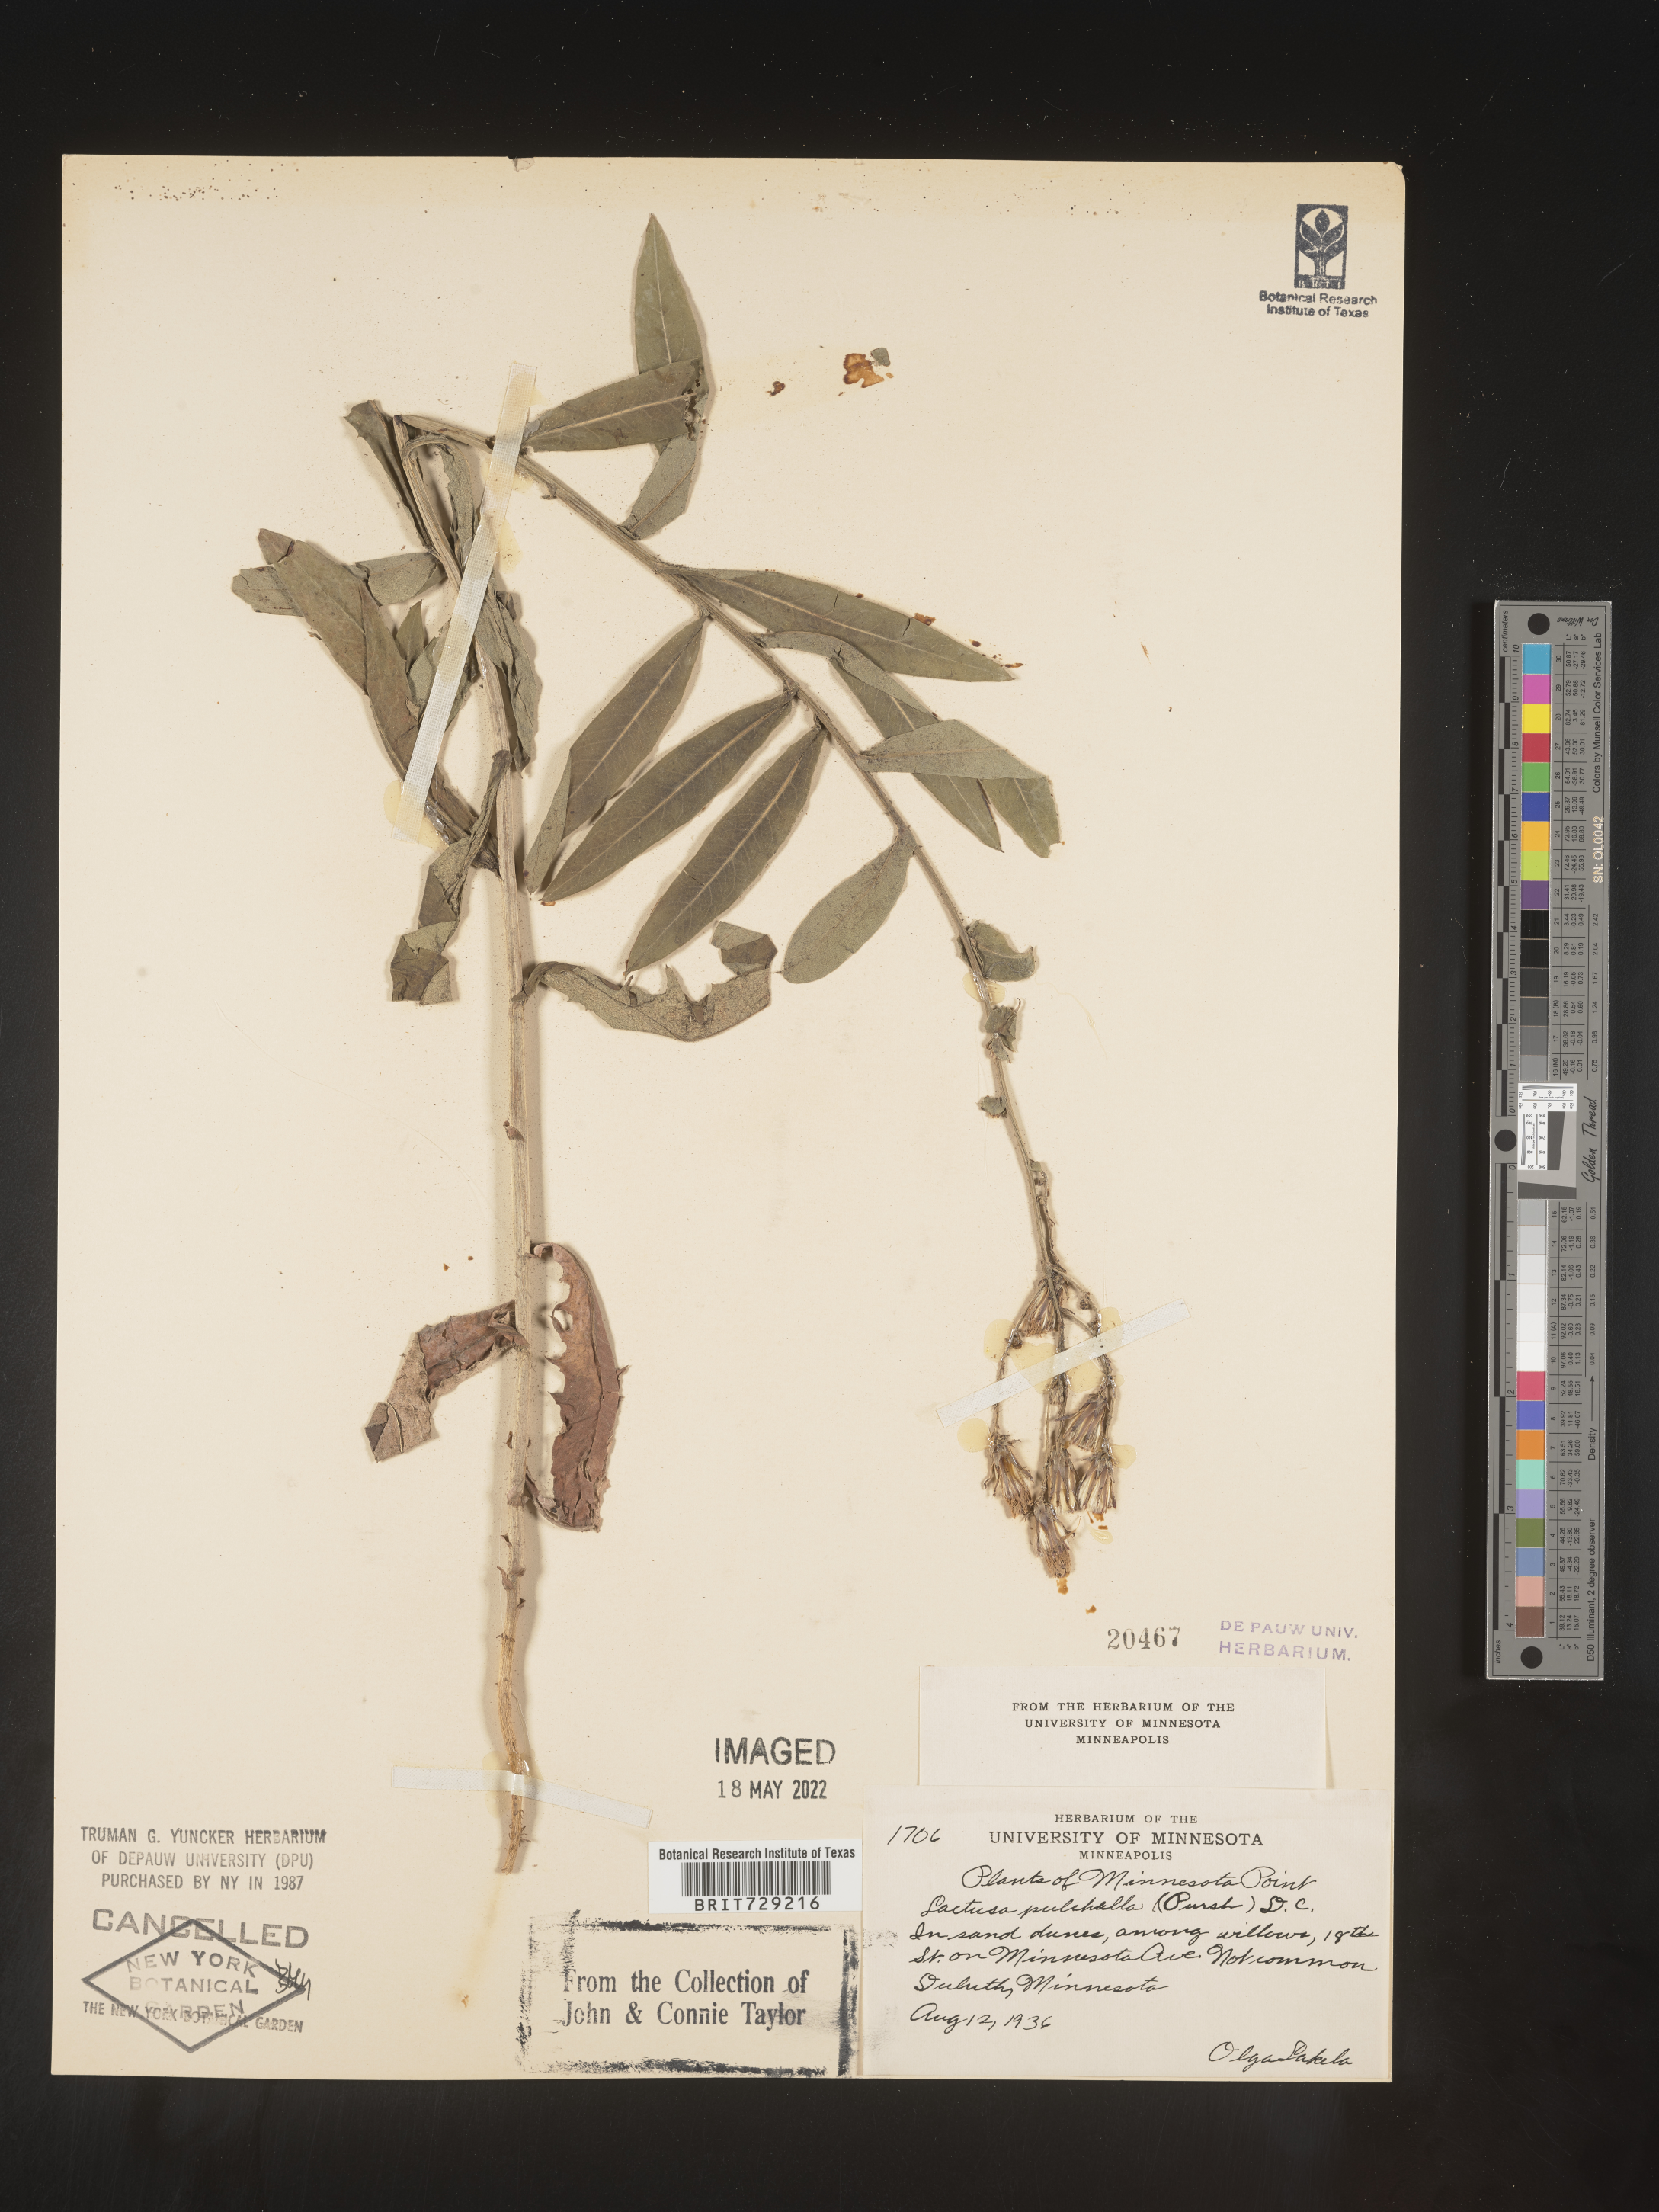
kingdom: Plantae
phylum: Tracheophyta
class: Magnoliopsida
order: Asterales
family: Asteraceae
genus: Lactuca
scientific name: Lactuca
